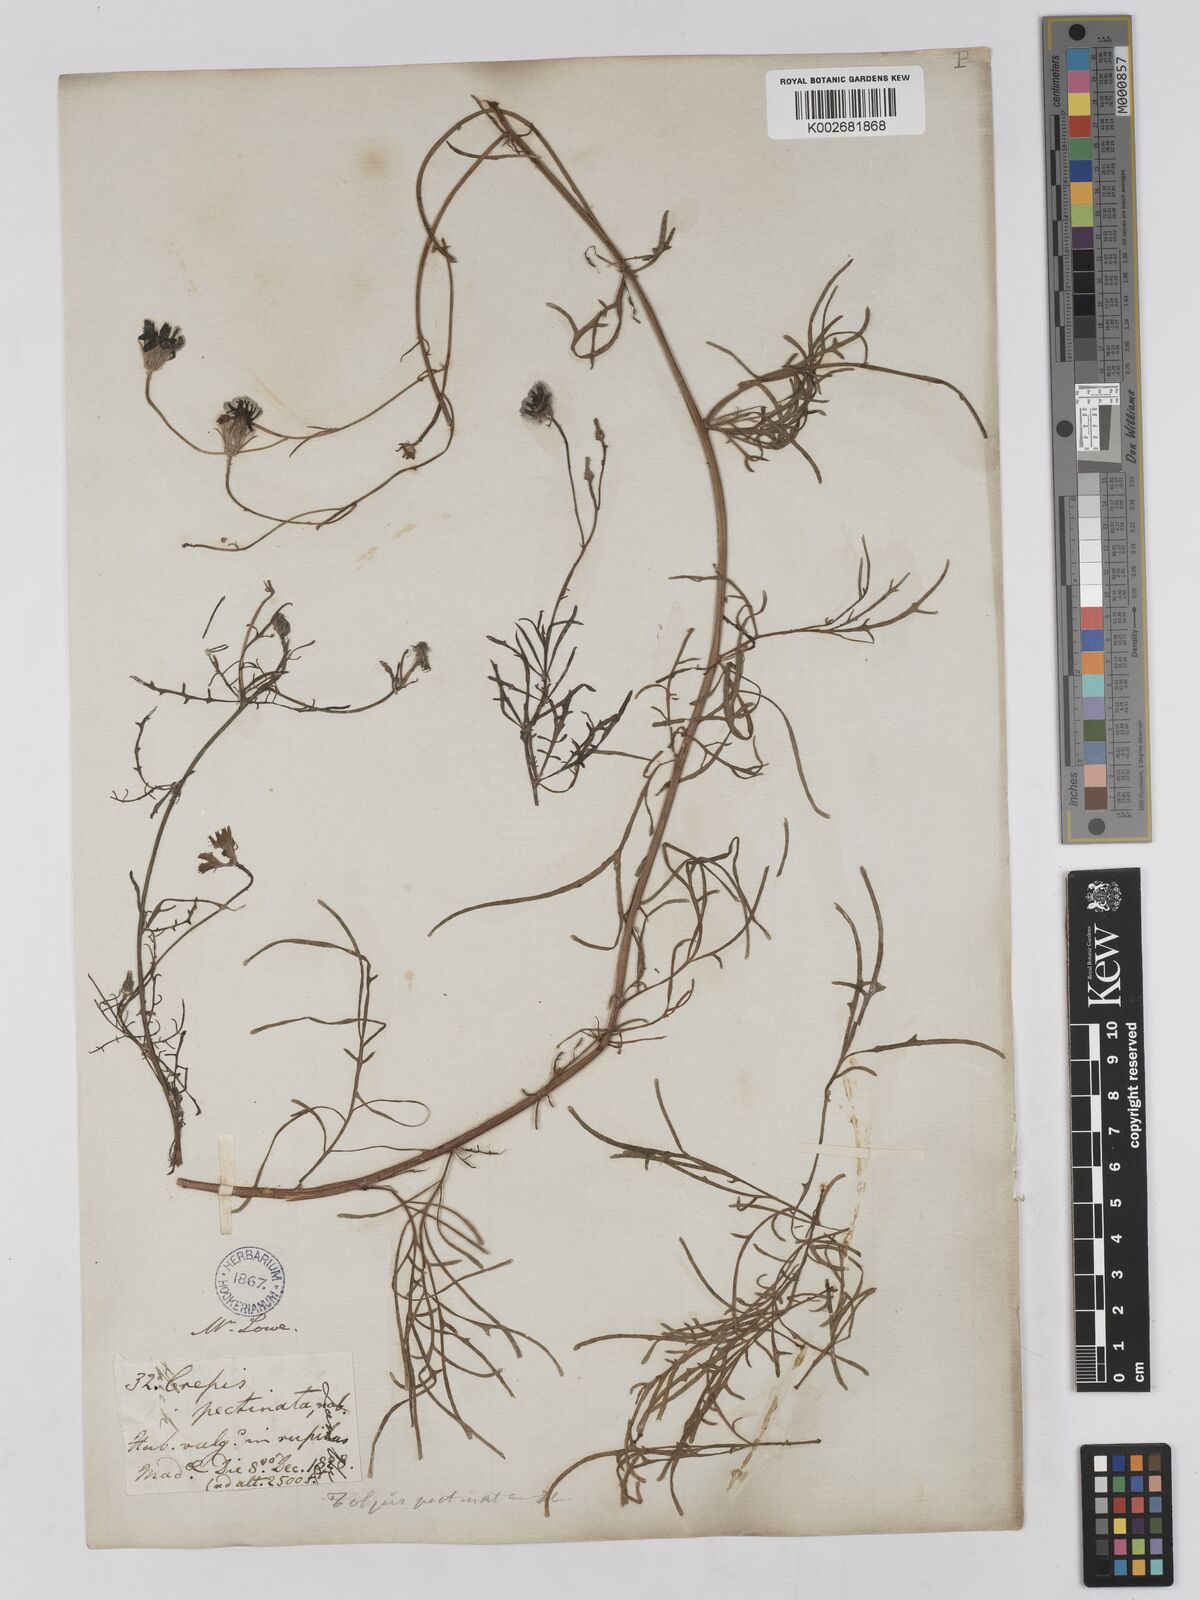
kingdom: Plantae
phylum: Tracheophyta
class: Magnoliopsida
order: Asterales
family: Asteraceae
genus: Tolpis
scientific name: Tolpis succulenta
